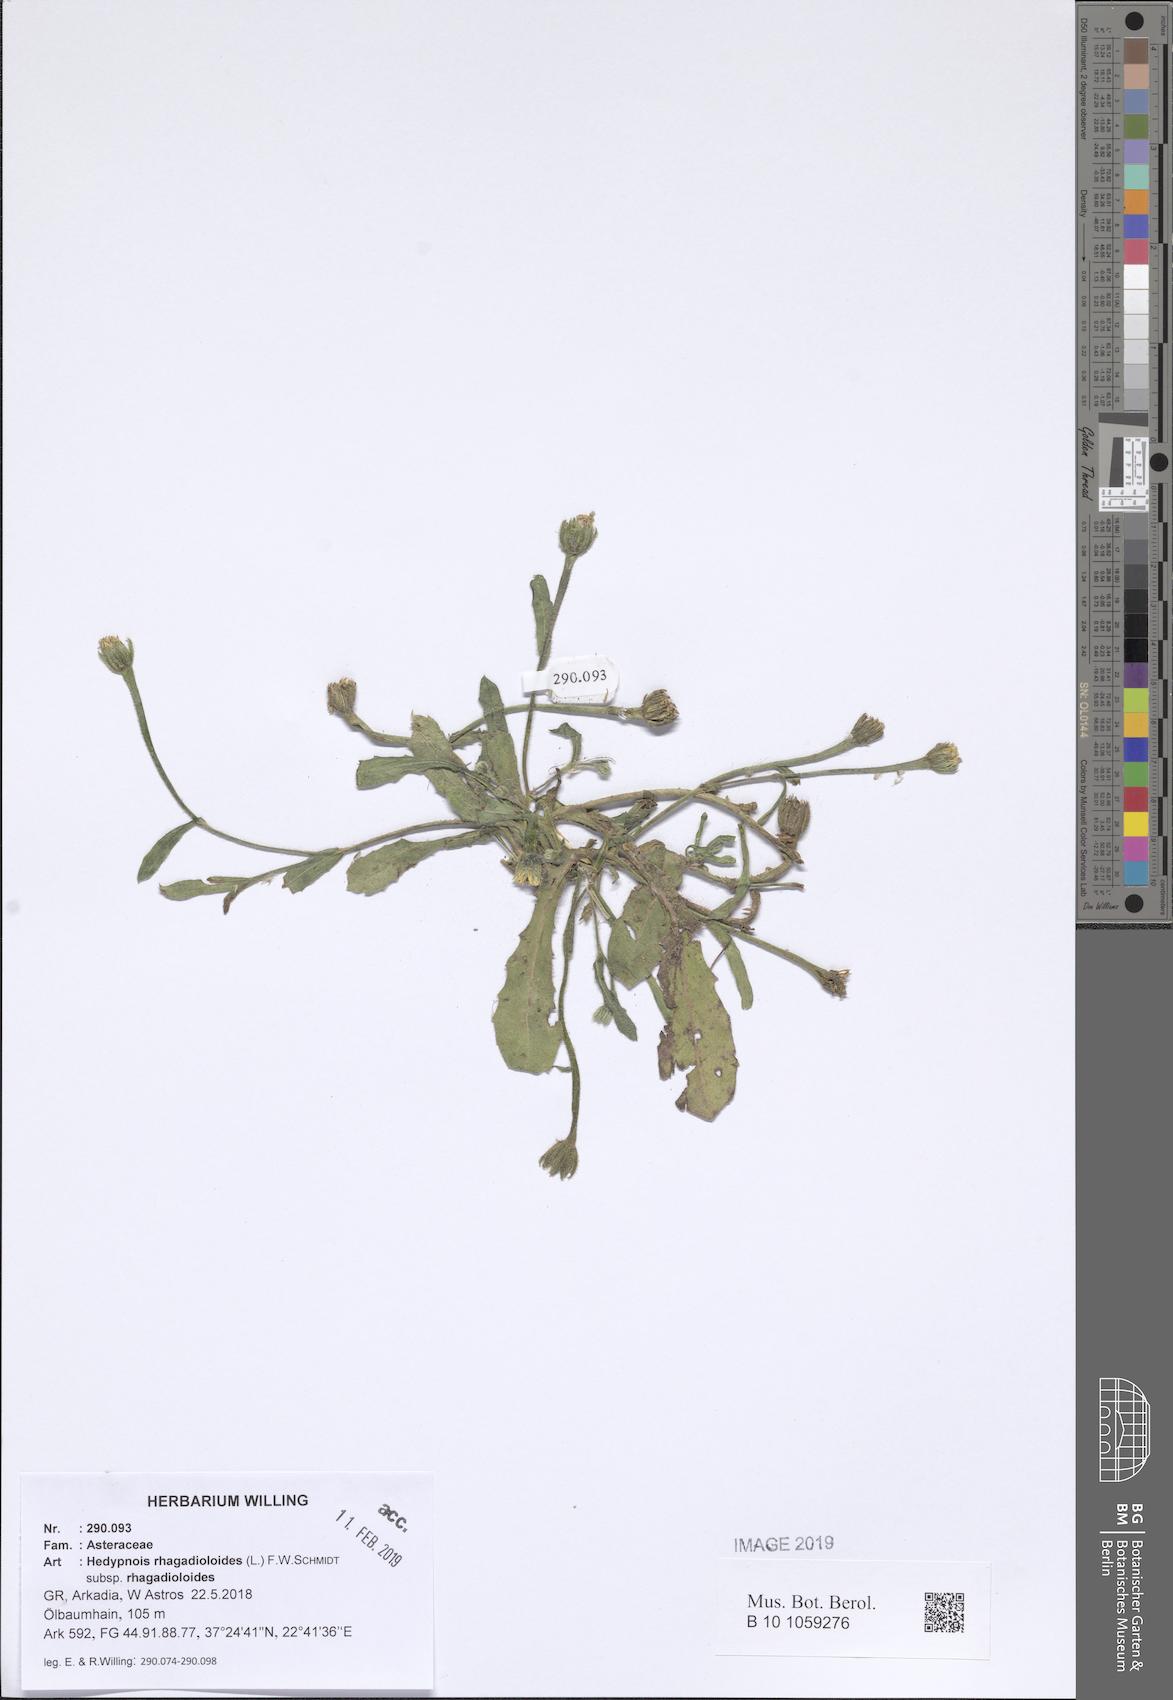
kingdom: Plantae
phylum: Tracheophyta
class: Magnoliopsida
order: Asterales
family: Asteraceae
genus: Hedypnois
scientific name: Hedypnois rhagadioloides
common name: Cretan weed
